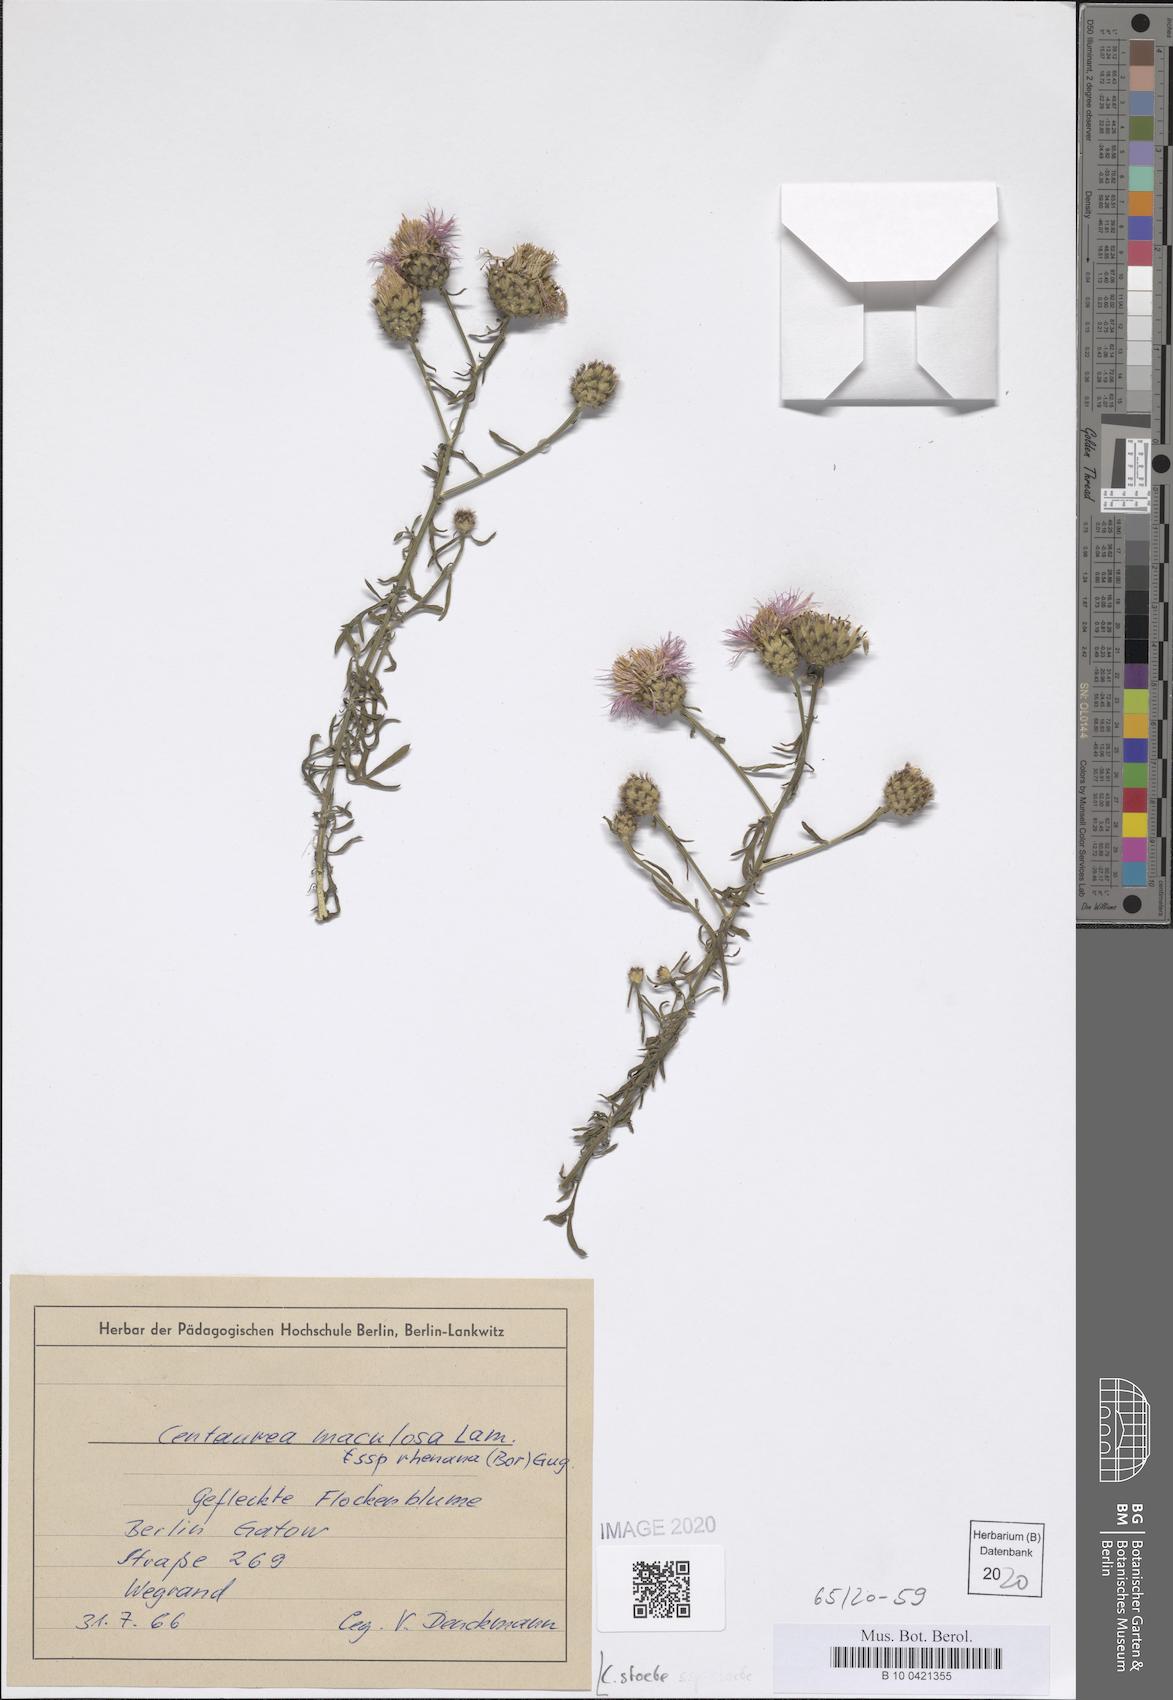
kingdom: Plantae
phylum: Tracheophyta
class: Magnoliopsida
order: Asterales
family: Asteraceae
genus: Centaurea
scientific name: Centaurea stoebe
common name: Spotted knapweed
